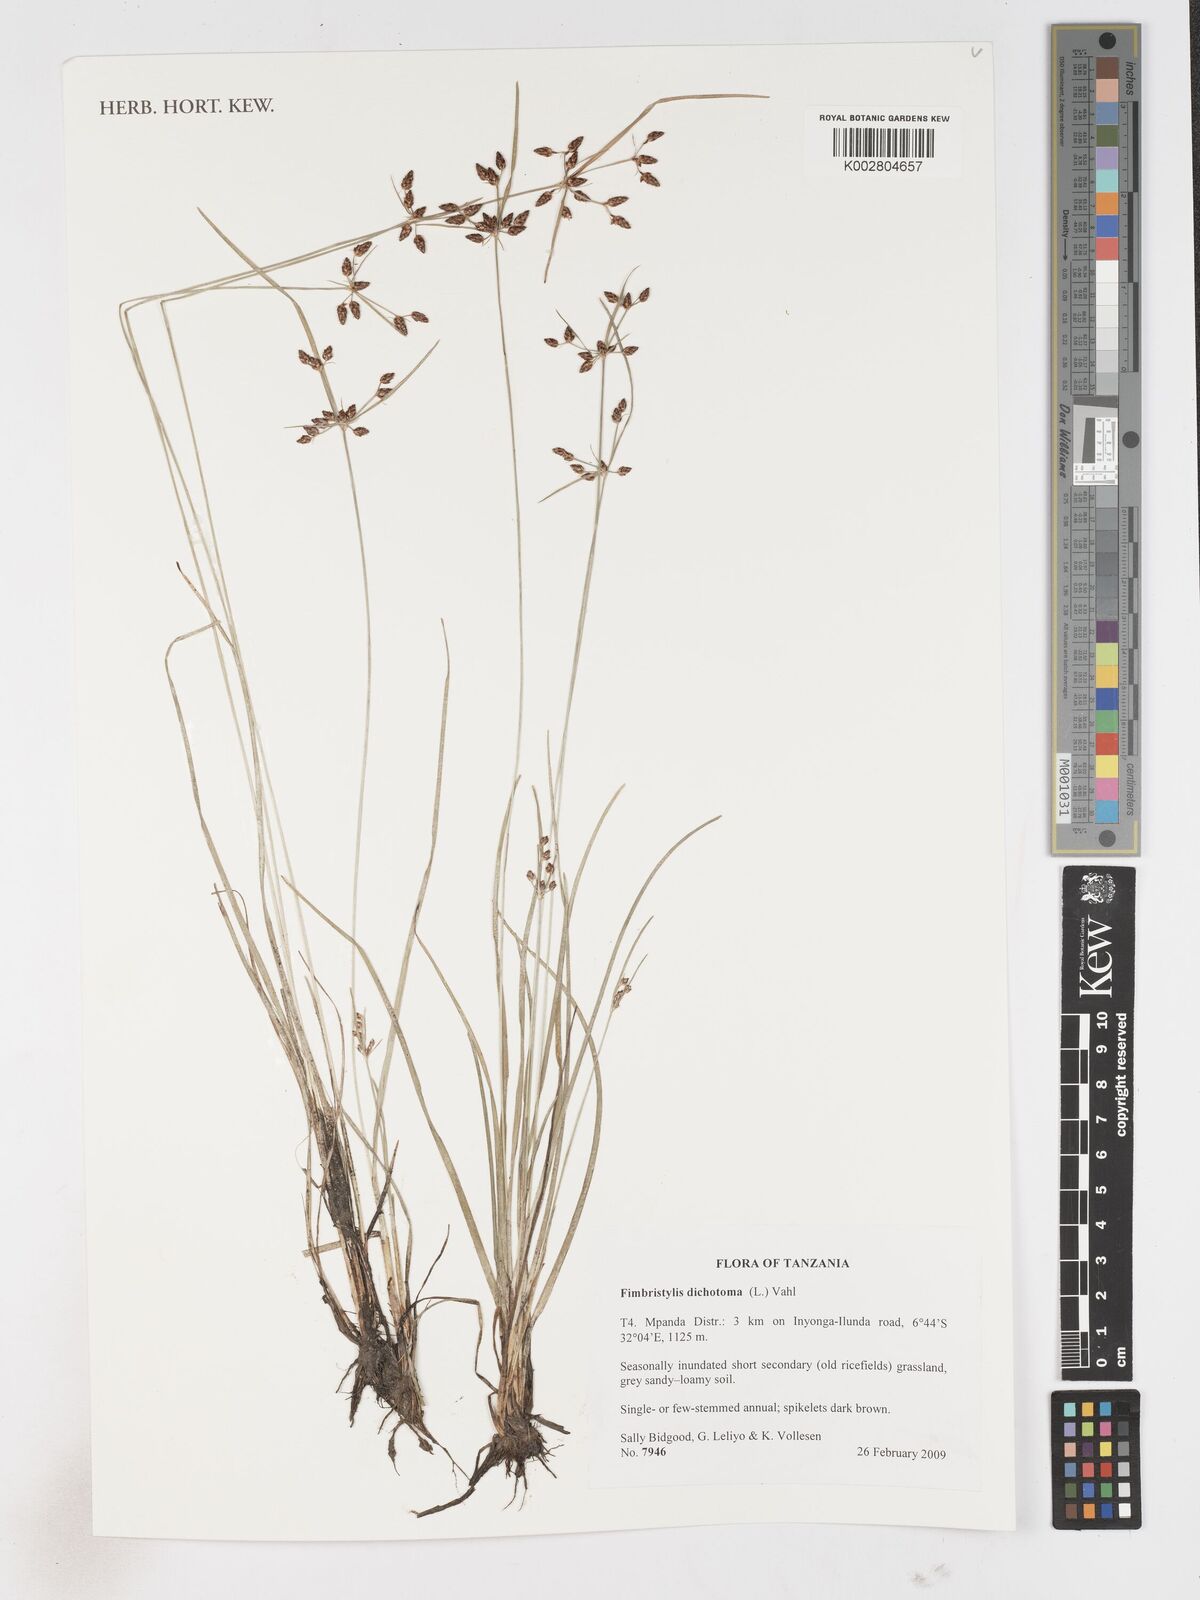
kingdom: Plantae
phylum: Tracheophyta
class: Liliopsida
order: Poales
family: Cyperaceae
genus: Fimbristylis
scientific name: Fimbristylis dichotoma
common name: Forked fimbry
